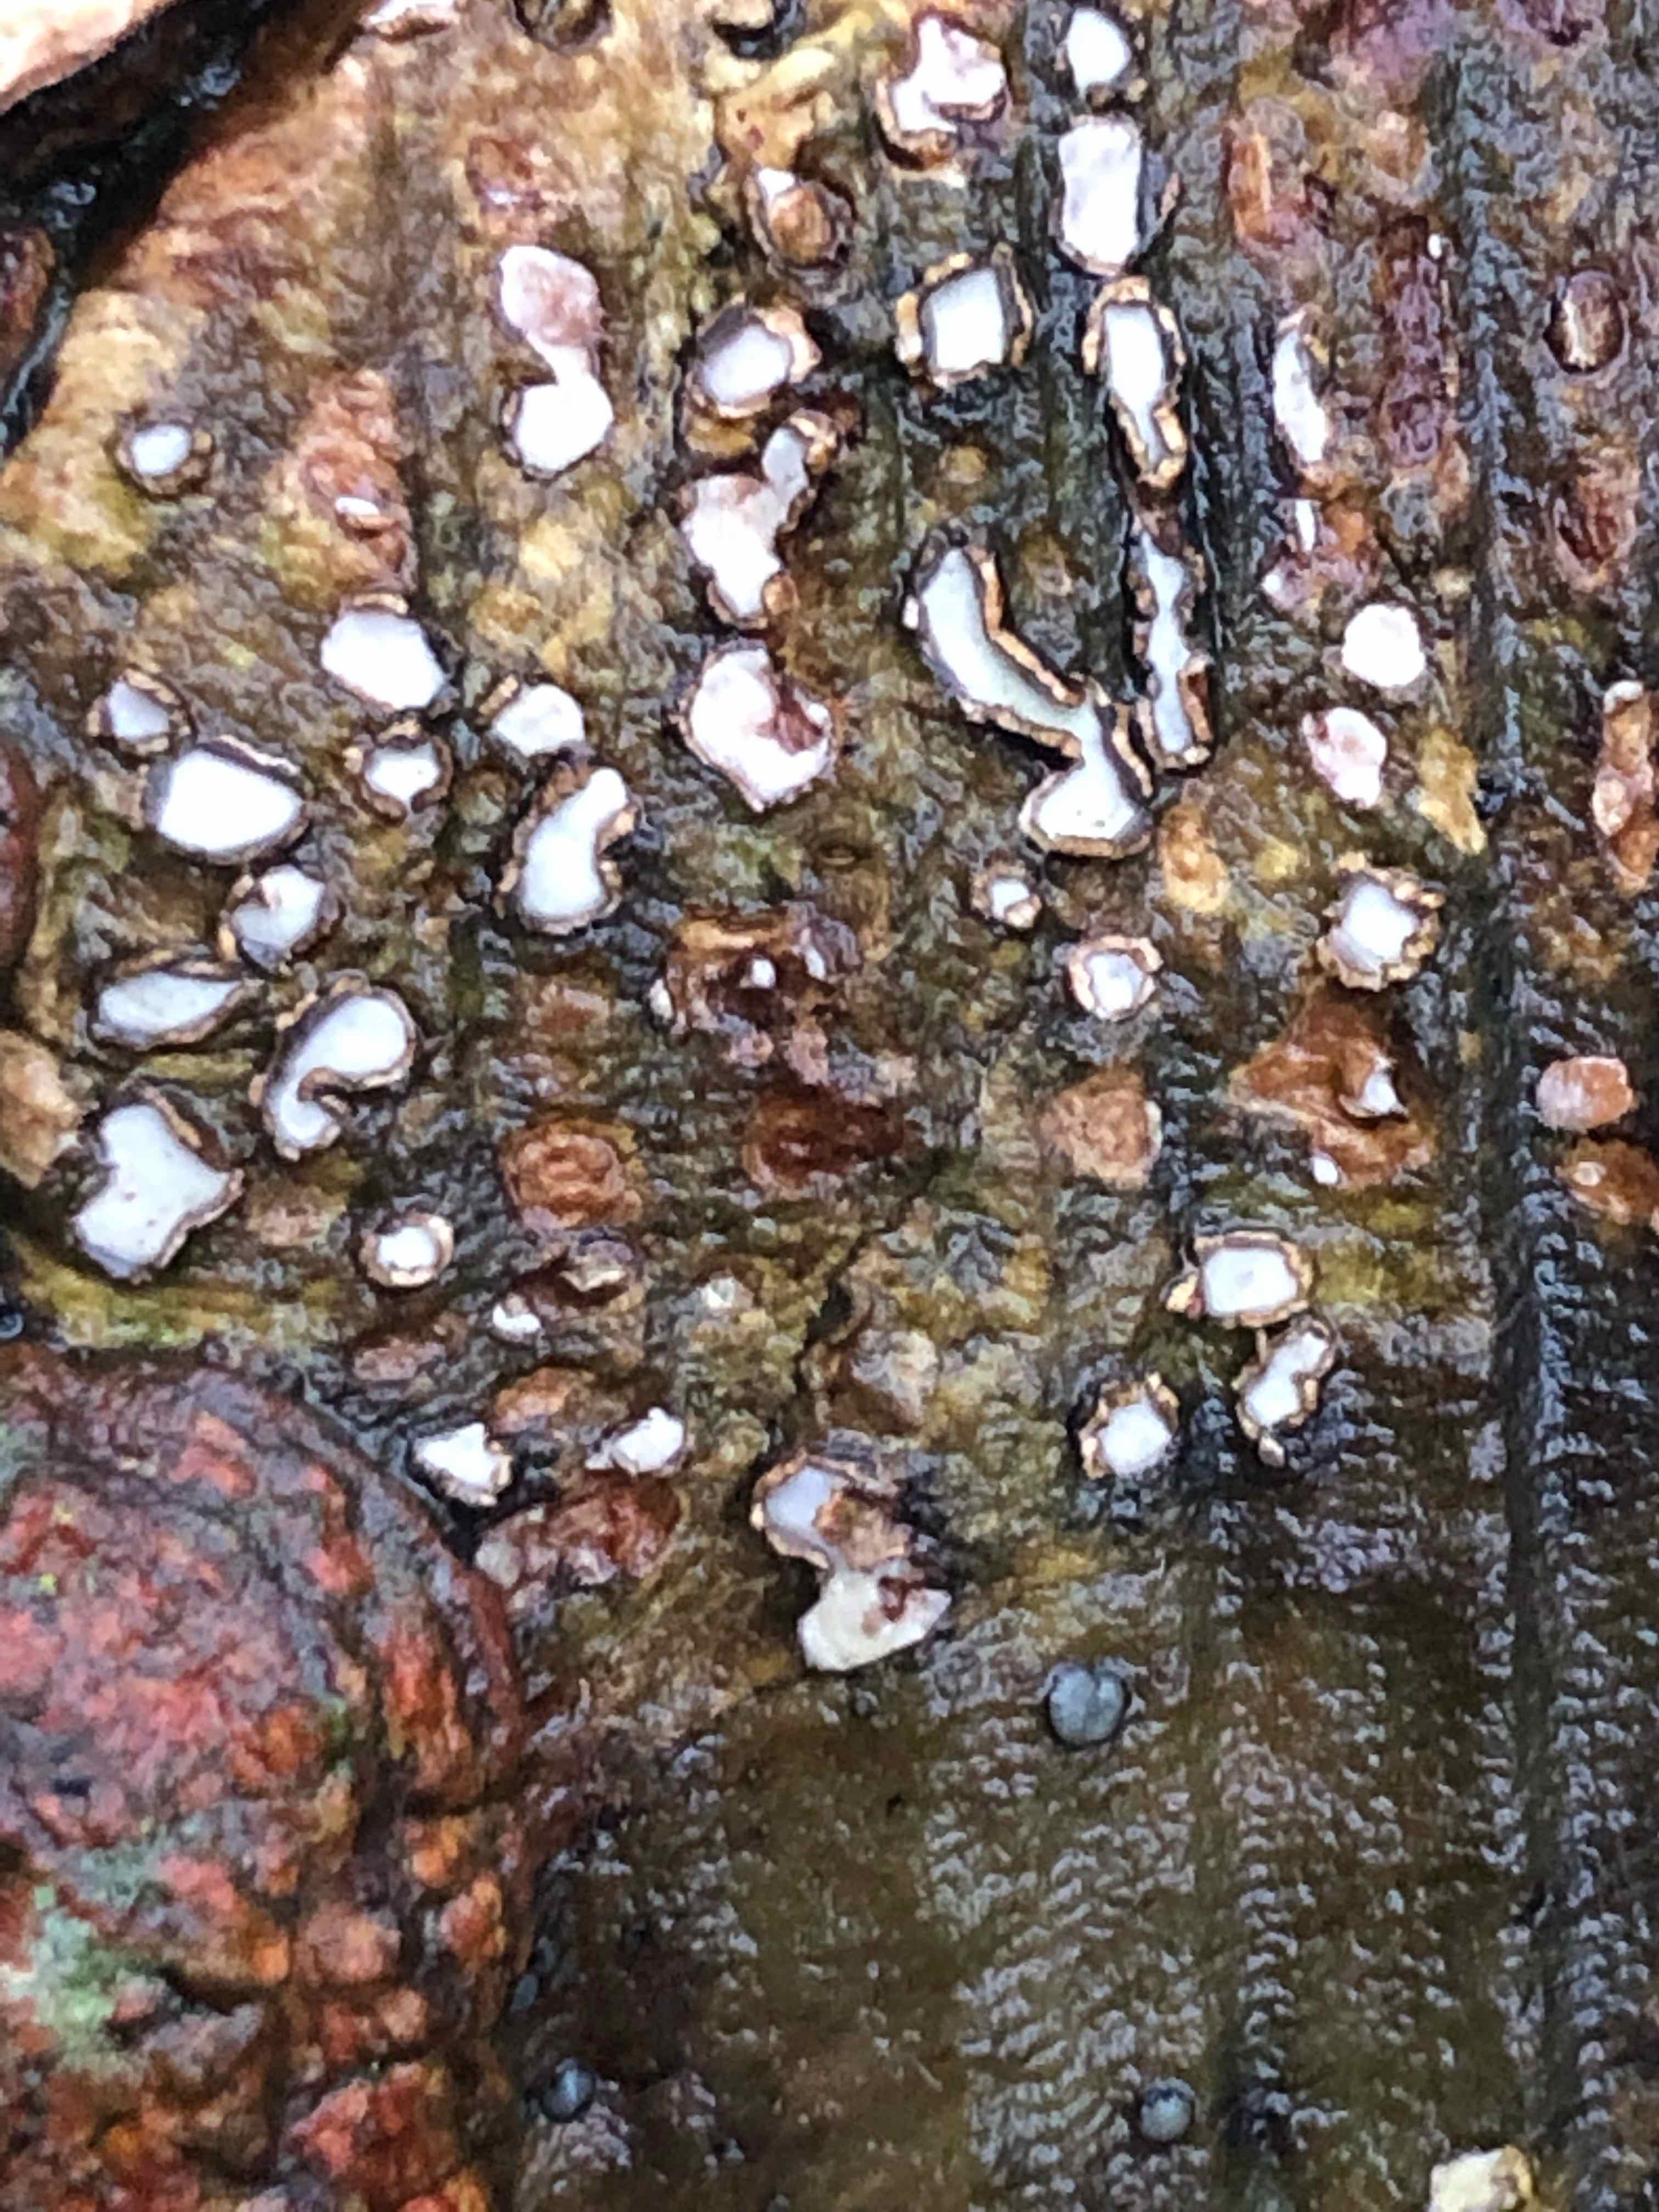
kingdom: Fungi
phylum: Ascomycota
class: Leotiomycetes
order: Chaetomellales
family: Marthamycetaceae
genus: Propolis
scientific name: Propolis farinosa
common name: almindelig vedsprængerskive
